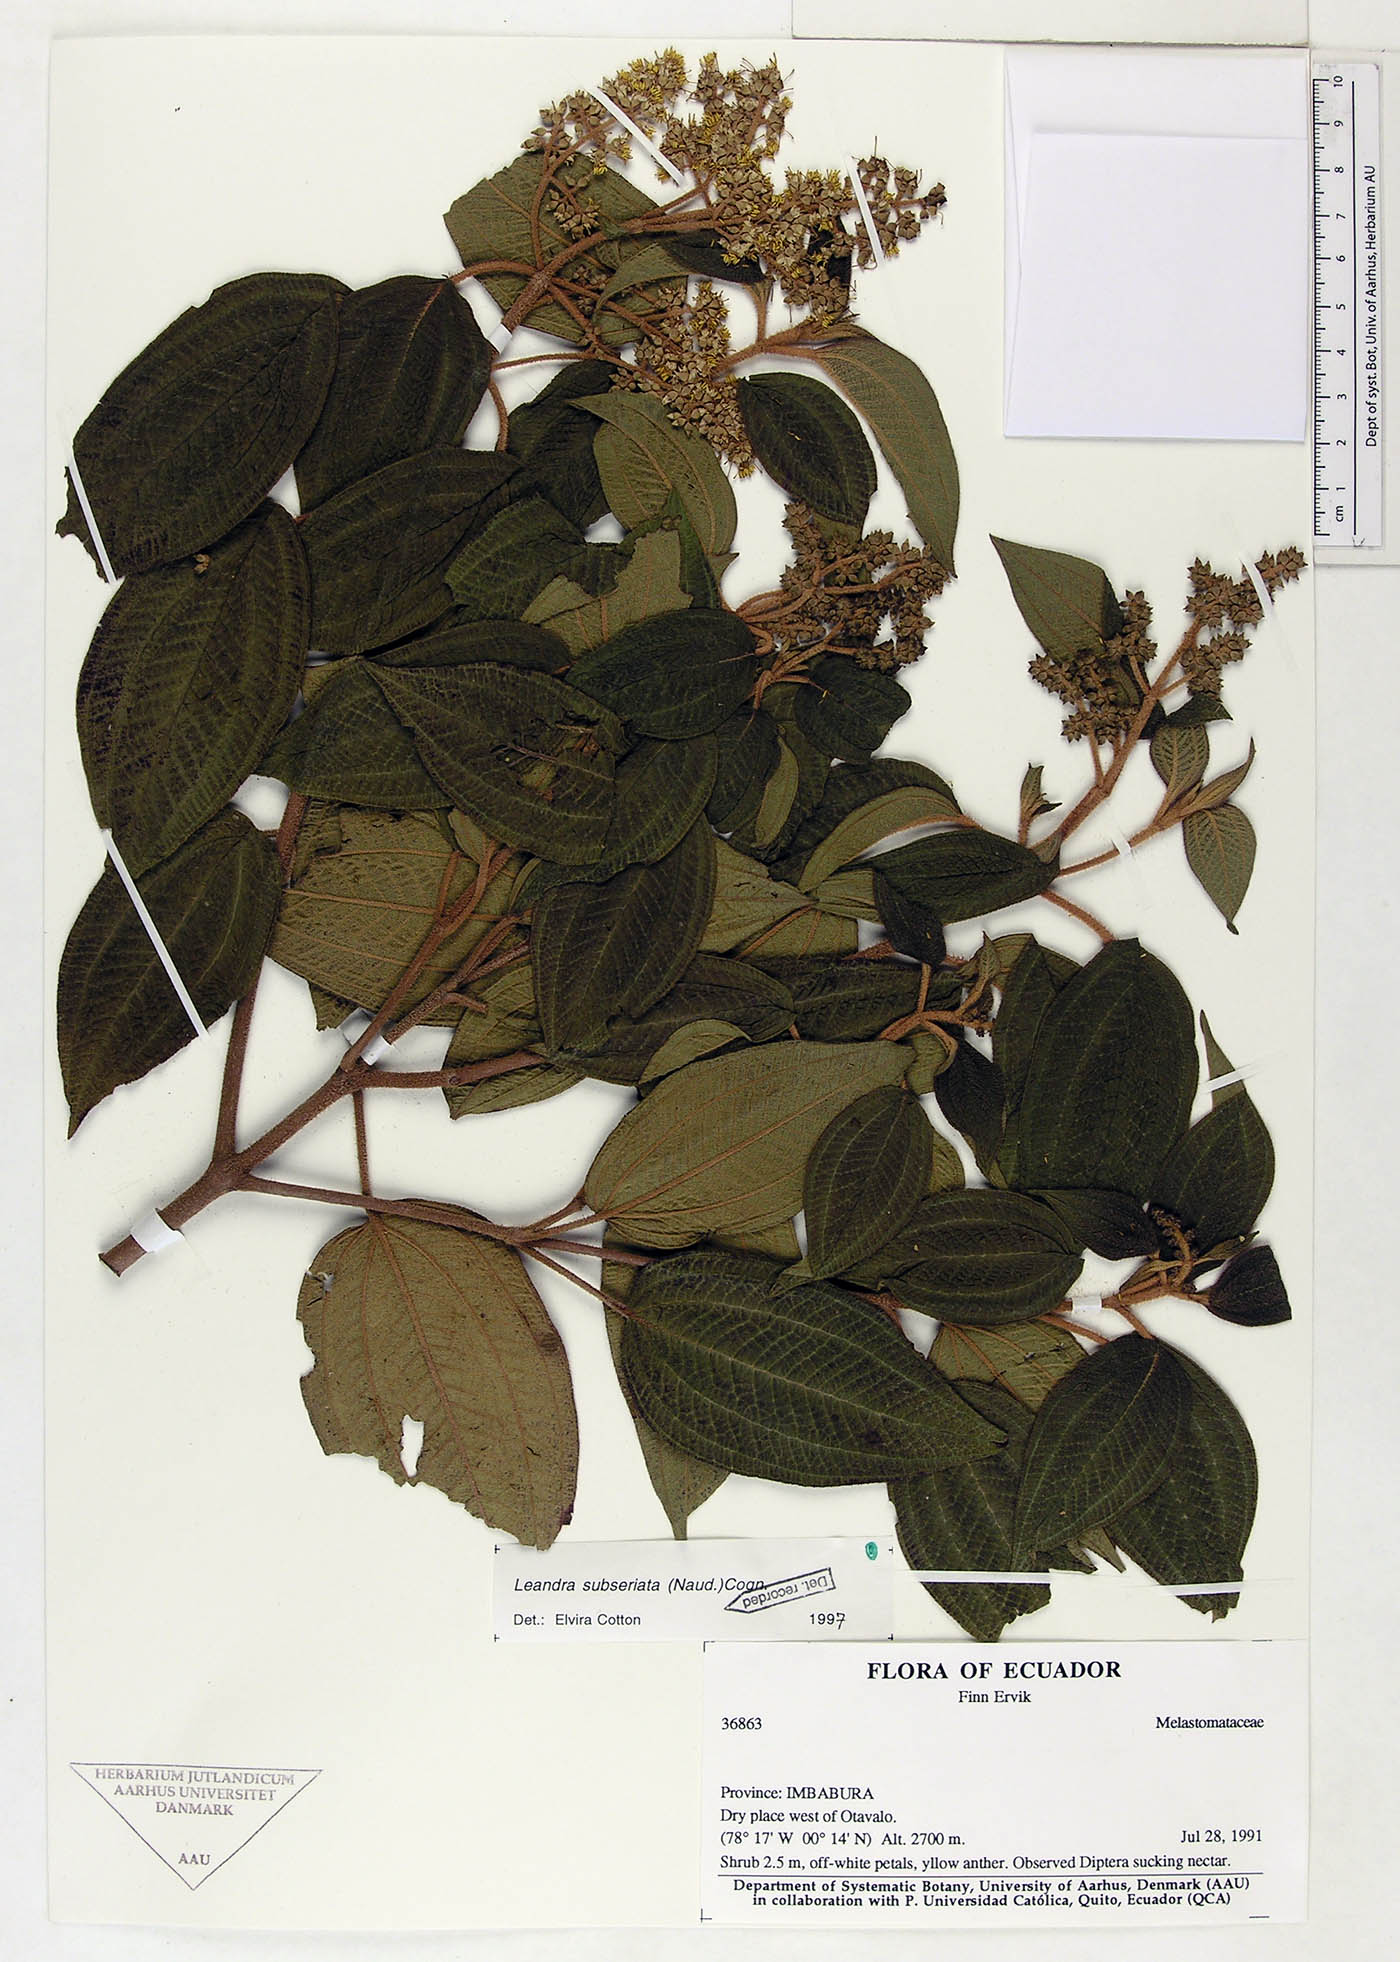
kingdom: Plantae
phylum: Tracheophyta
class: Magnoliopsida
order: Myrtales
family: Melastomataceae
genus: Miconia
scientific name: Miconia subseriata
